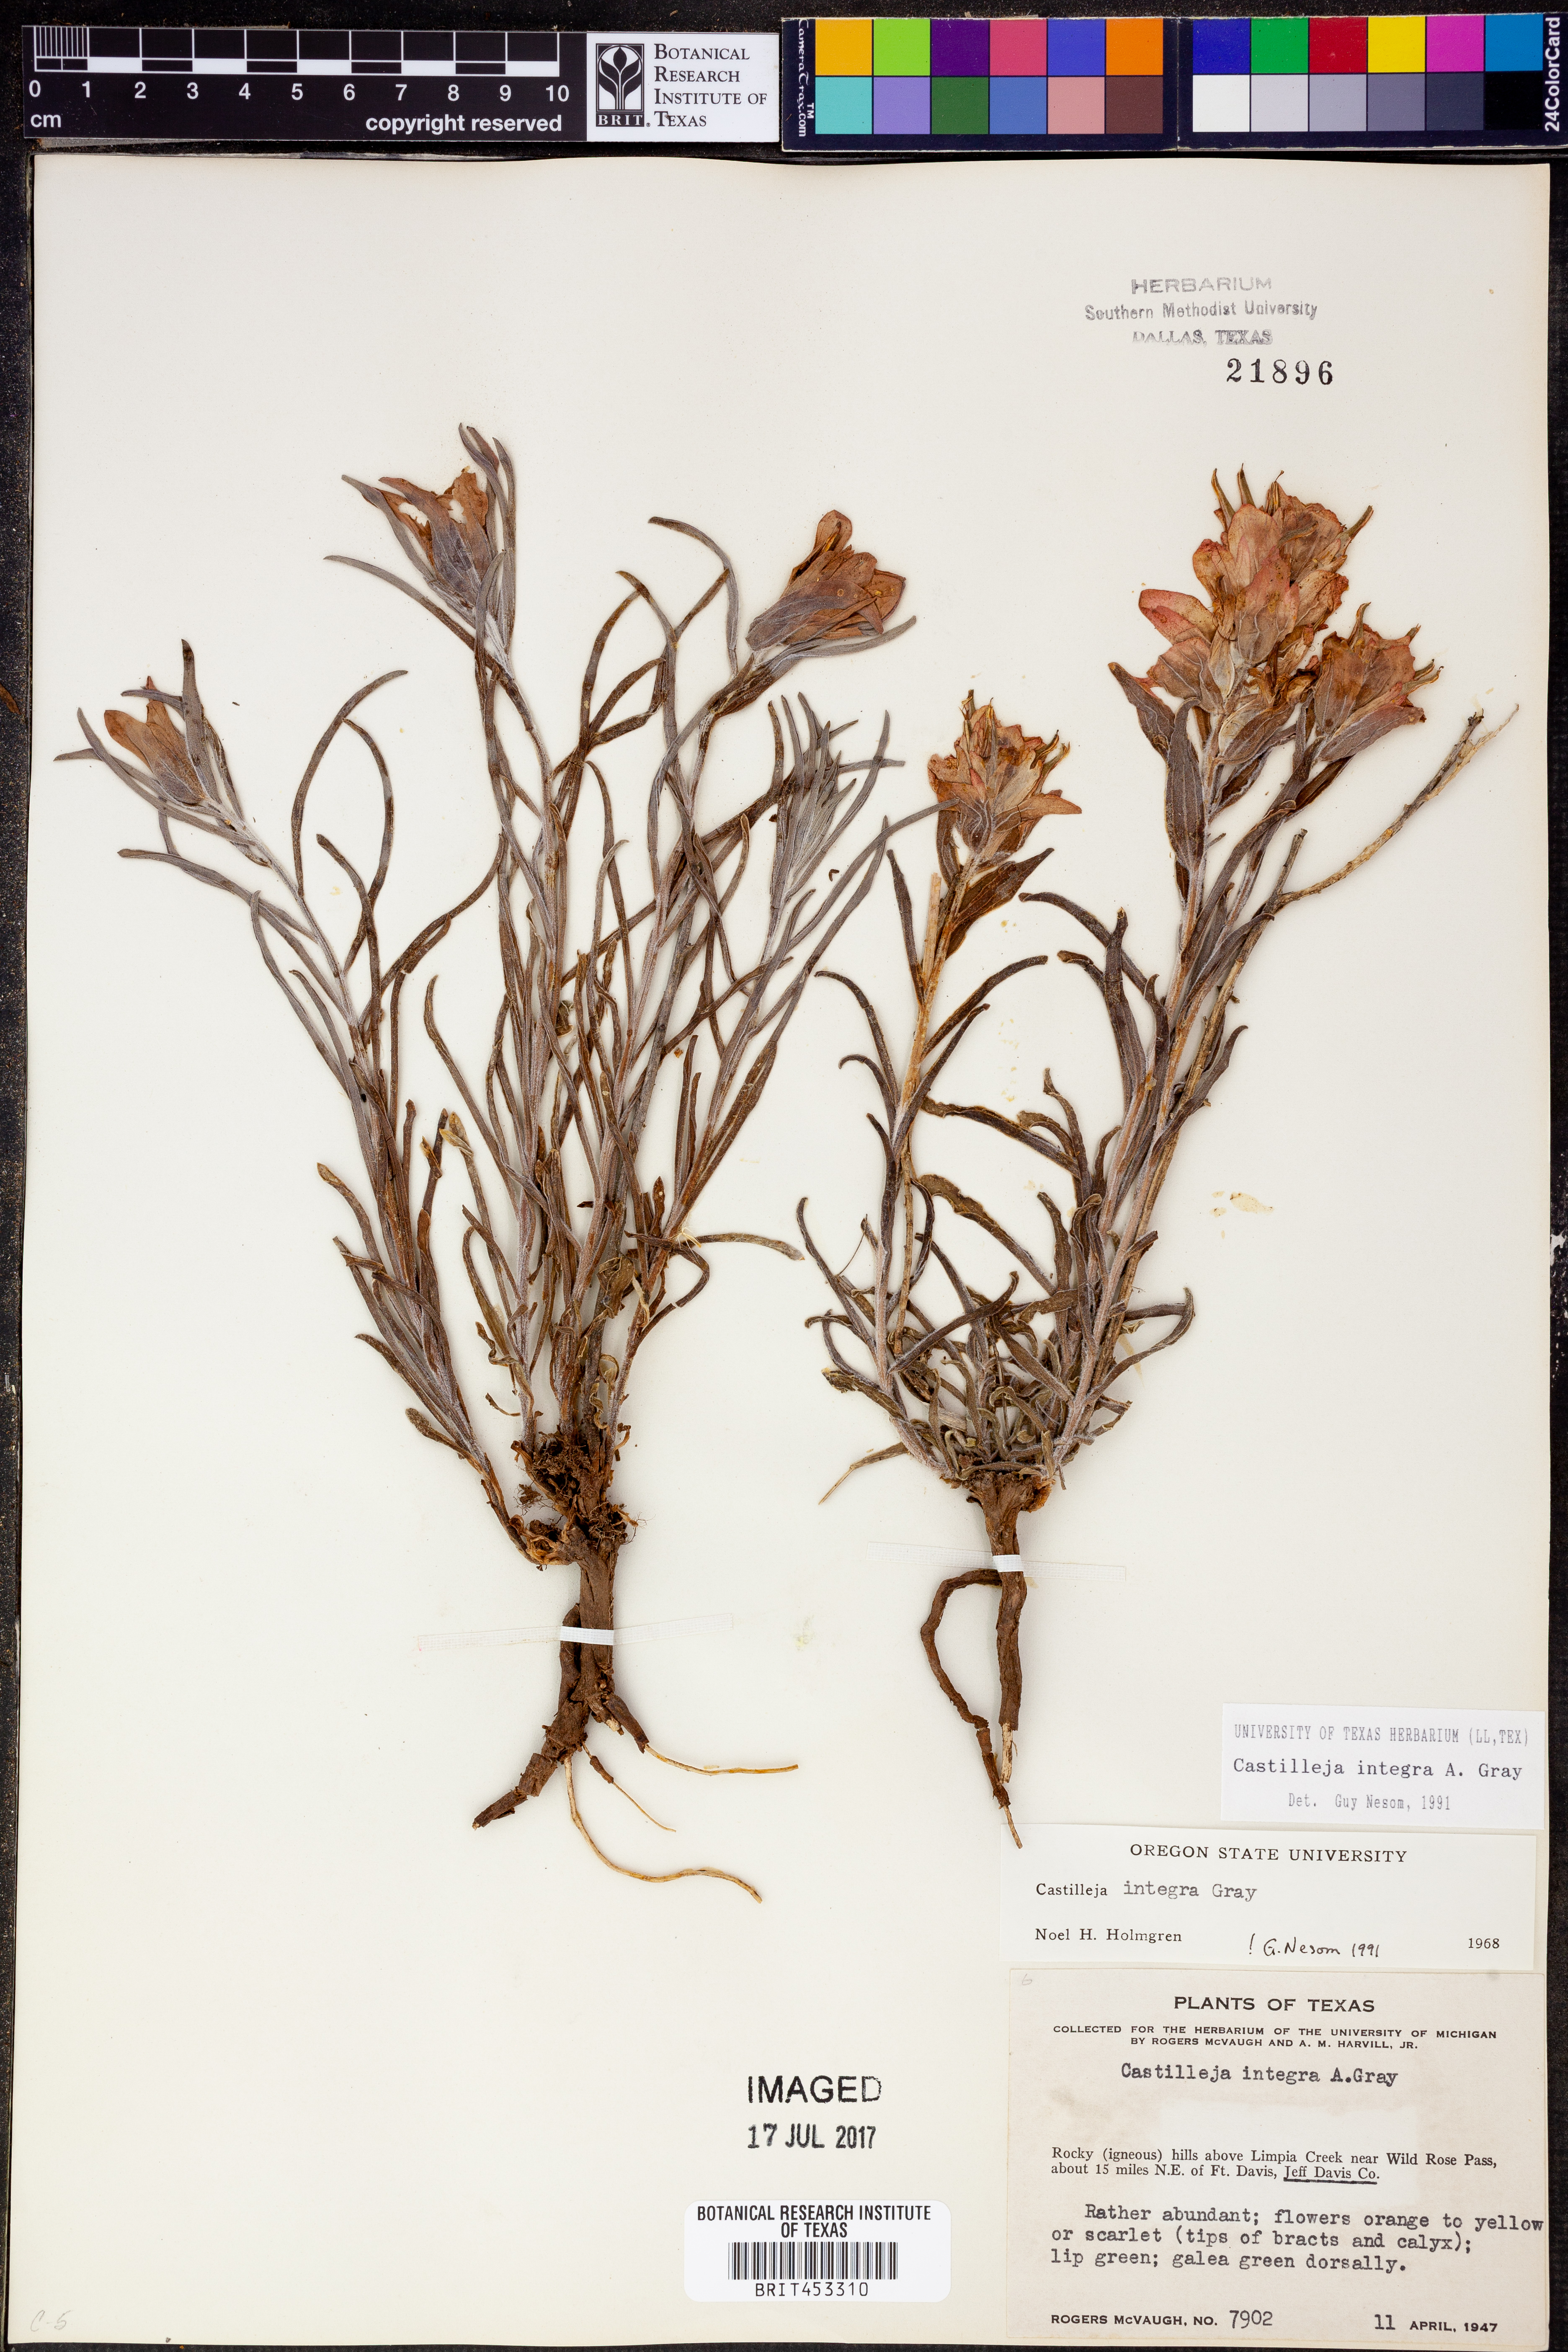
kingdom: Plantae
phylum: Tracheophyta
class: Magnoliopsida
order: Lamiales
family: Orobanchaceae
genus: Castilleja
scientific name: Castilleja integra
